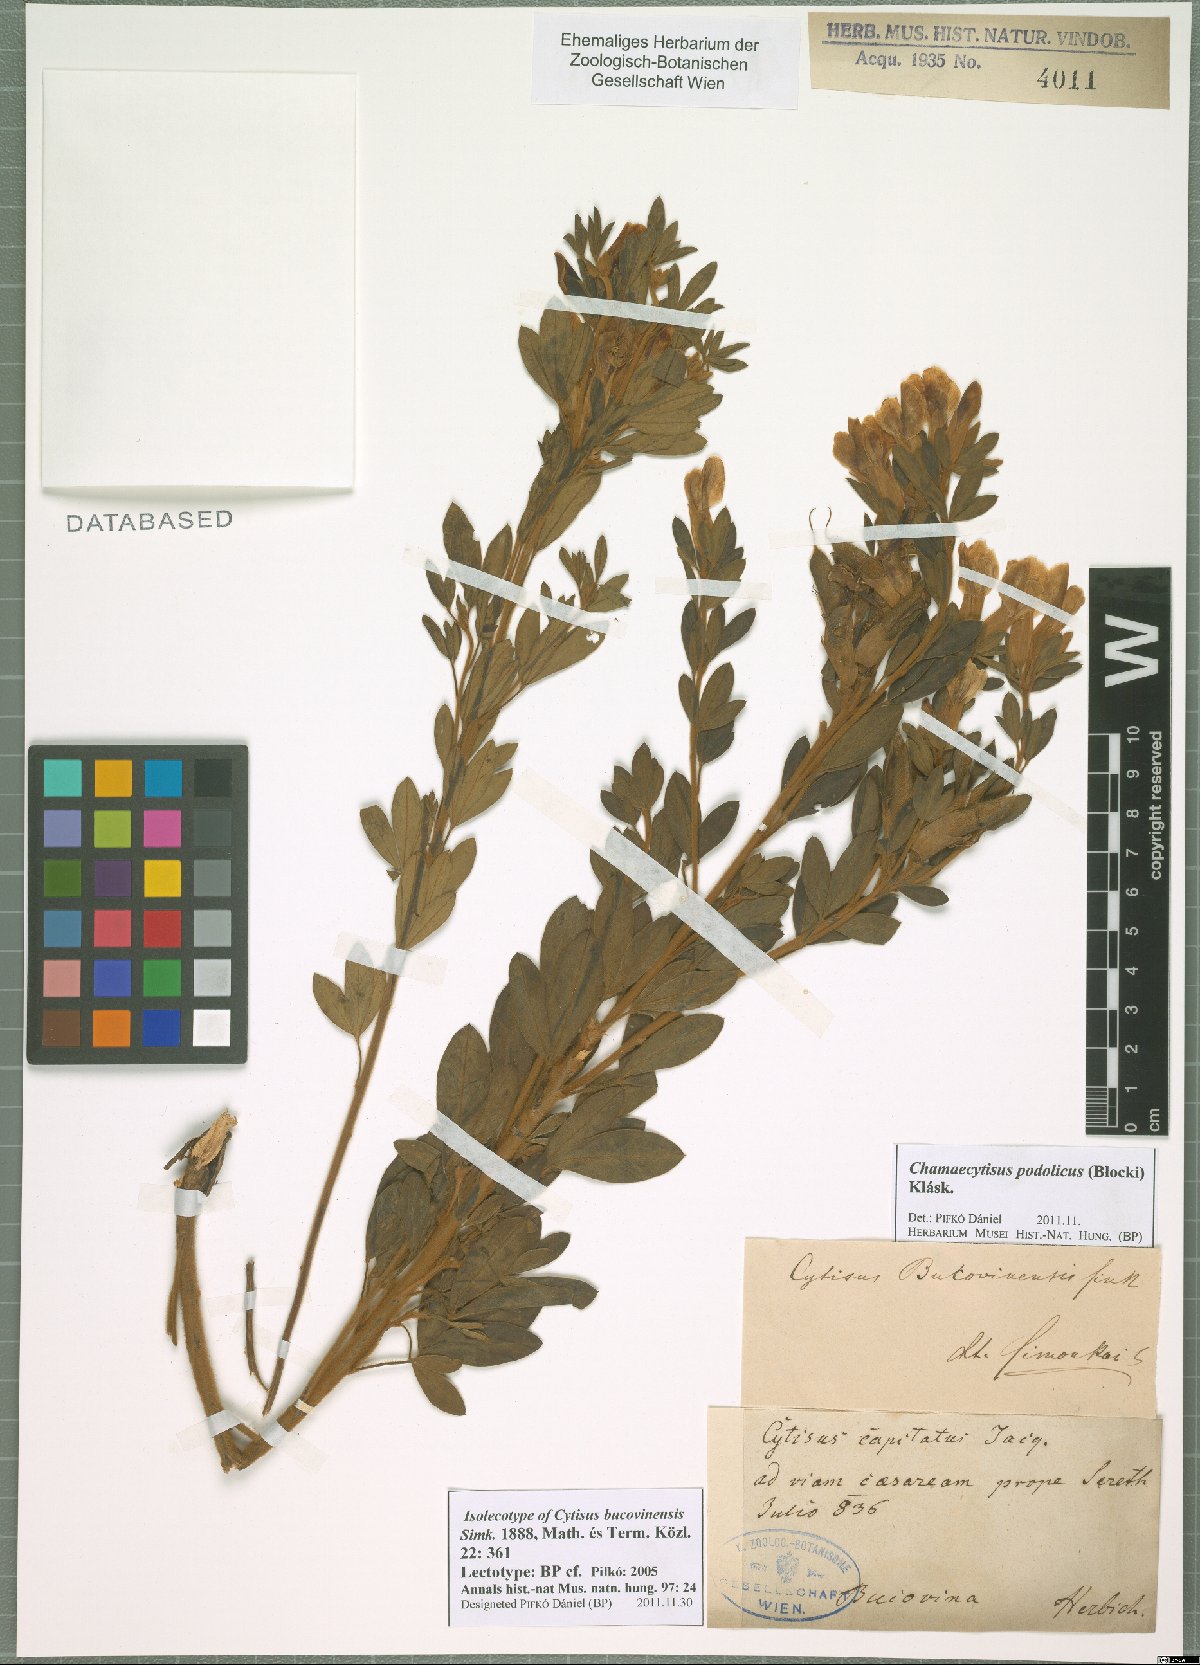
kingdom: Plantae
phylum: Tracheophyta
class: Magnoliopsida
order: Fabales
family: Fabaceae
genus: Chamaecytisus
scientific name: Chamaecytisus podolicus
